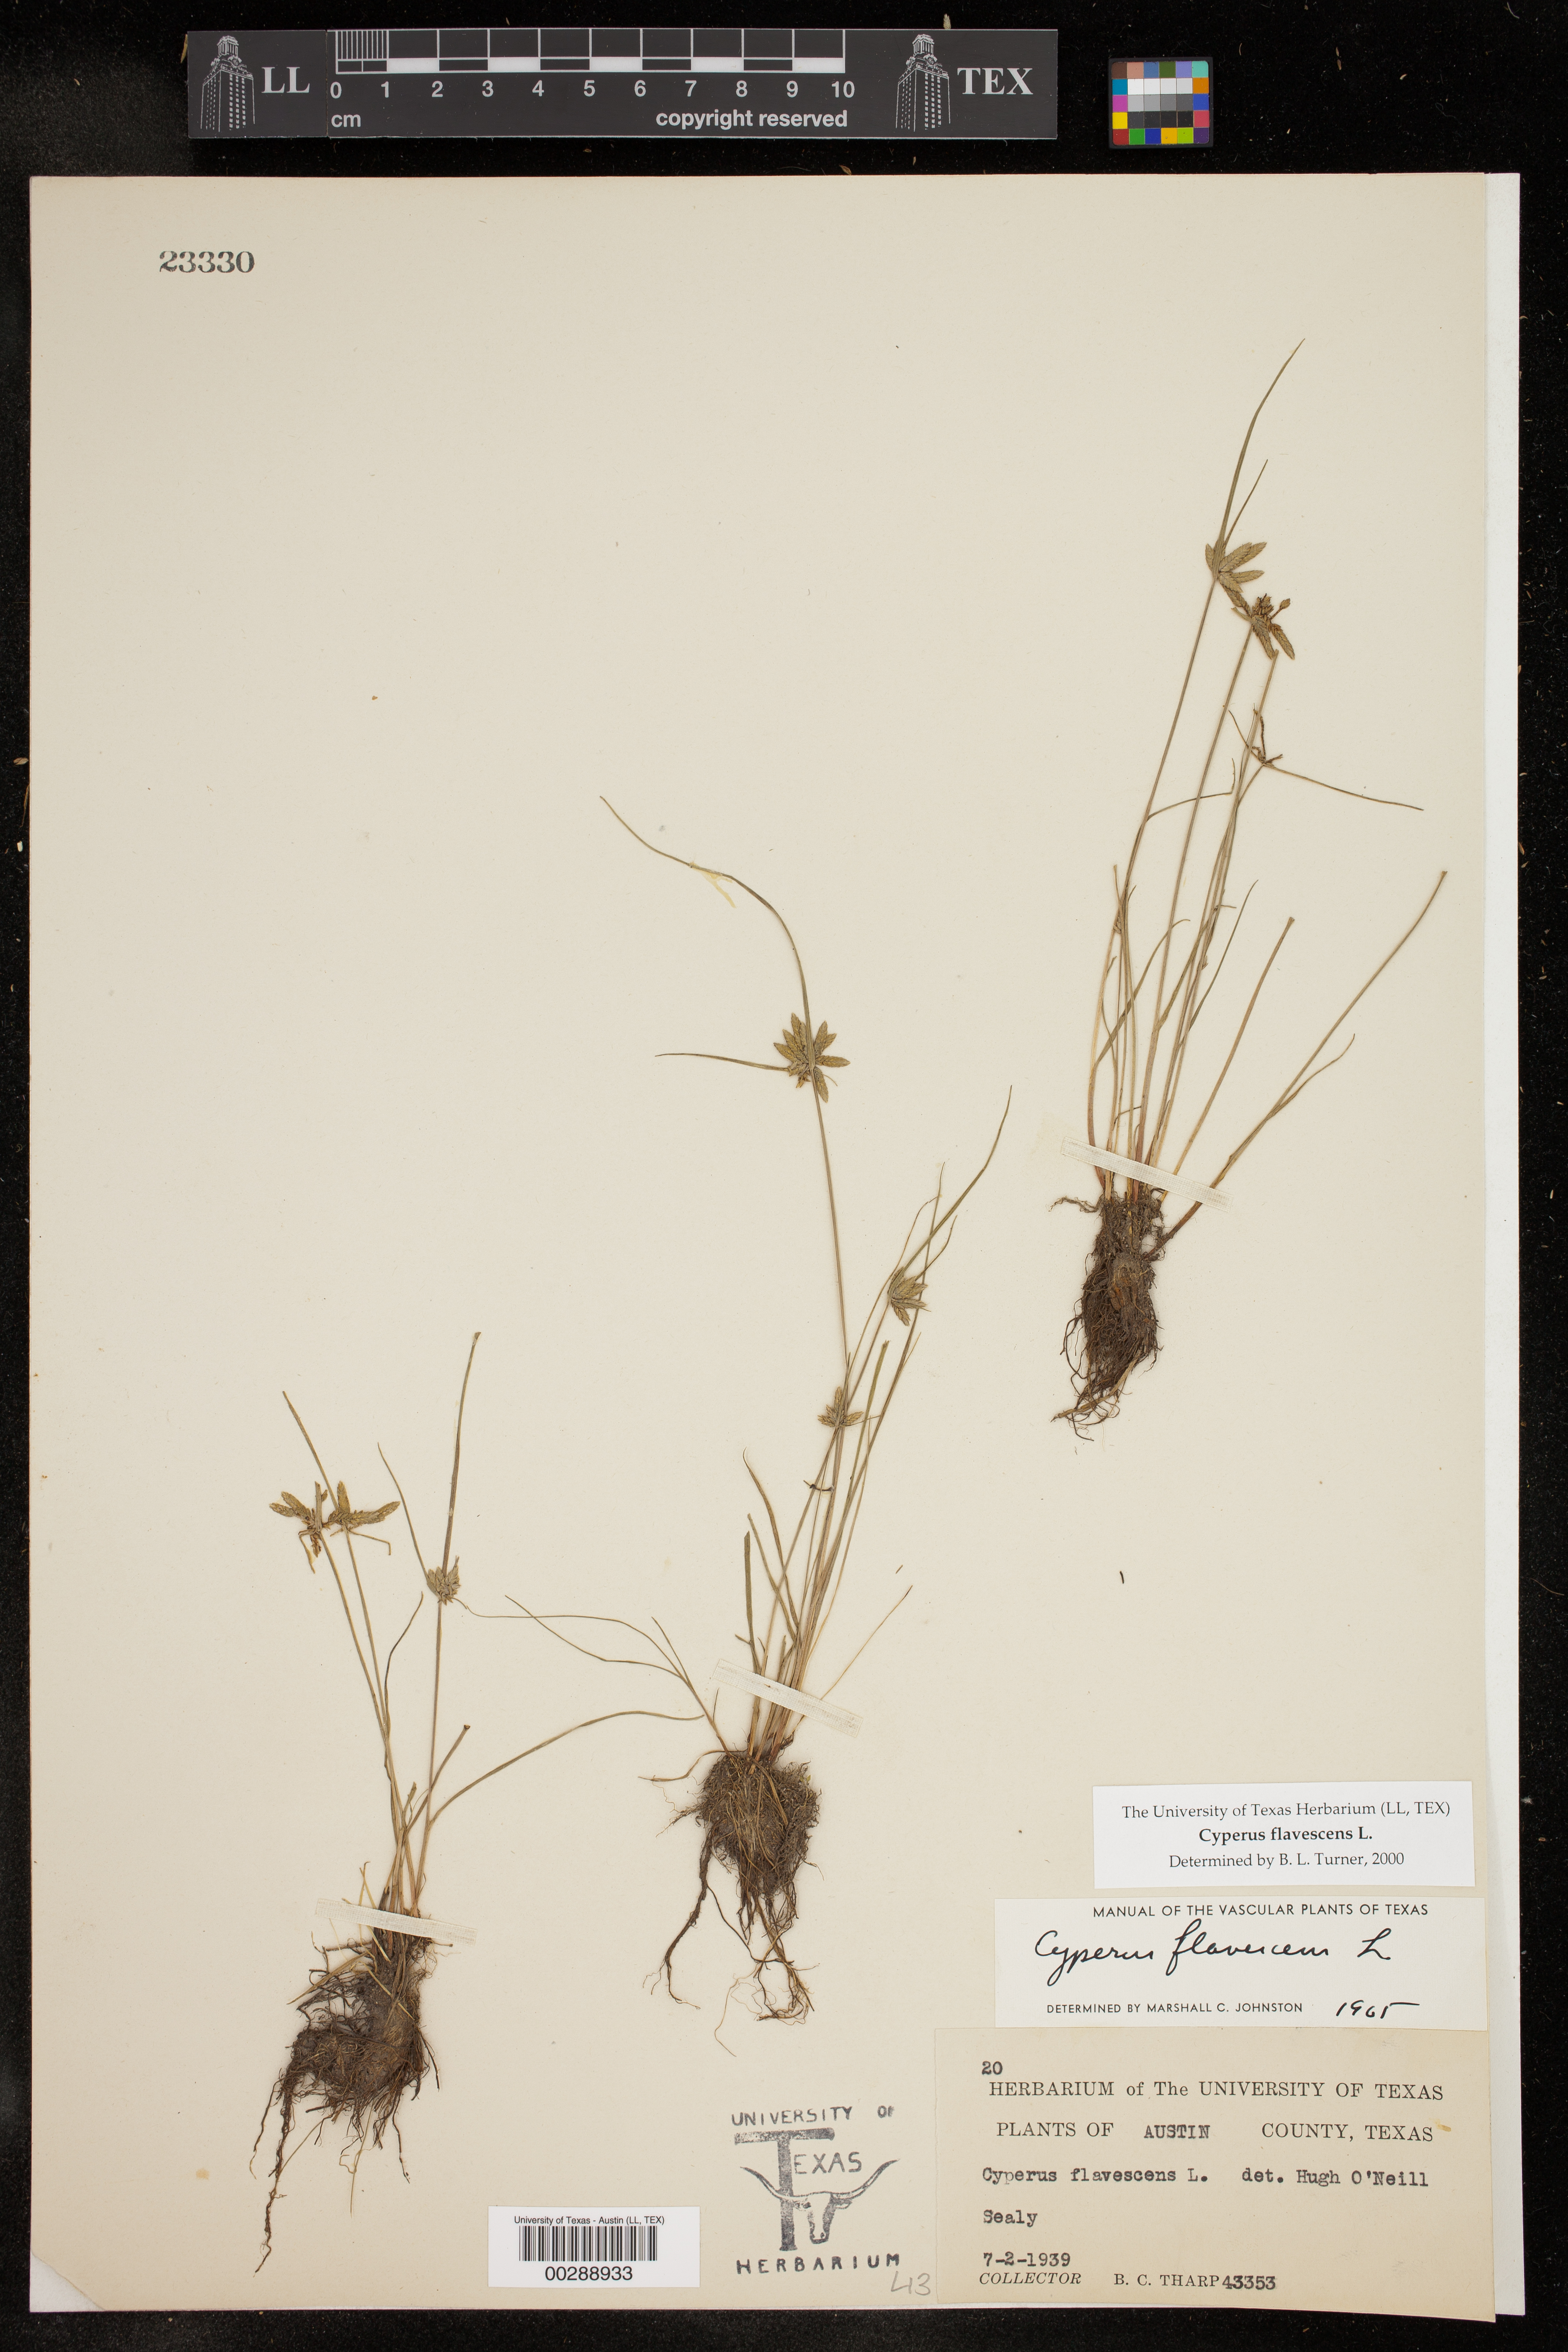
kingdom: Plantae
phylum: Tracheophyta
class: Liliopsida
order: Poales
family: Cyperaceae
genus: Cyperus
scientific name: Cyperus flavescens
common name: Yellow galingale
